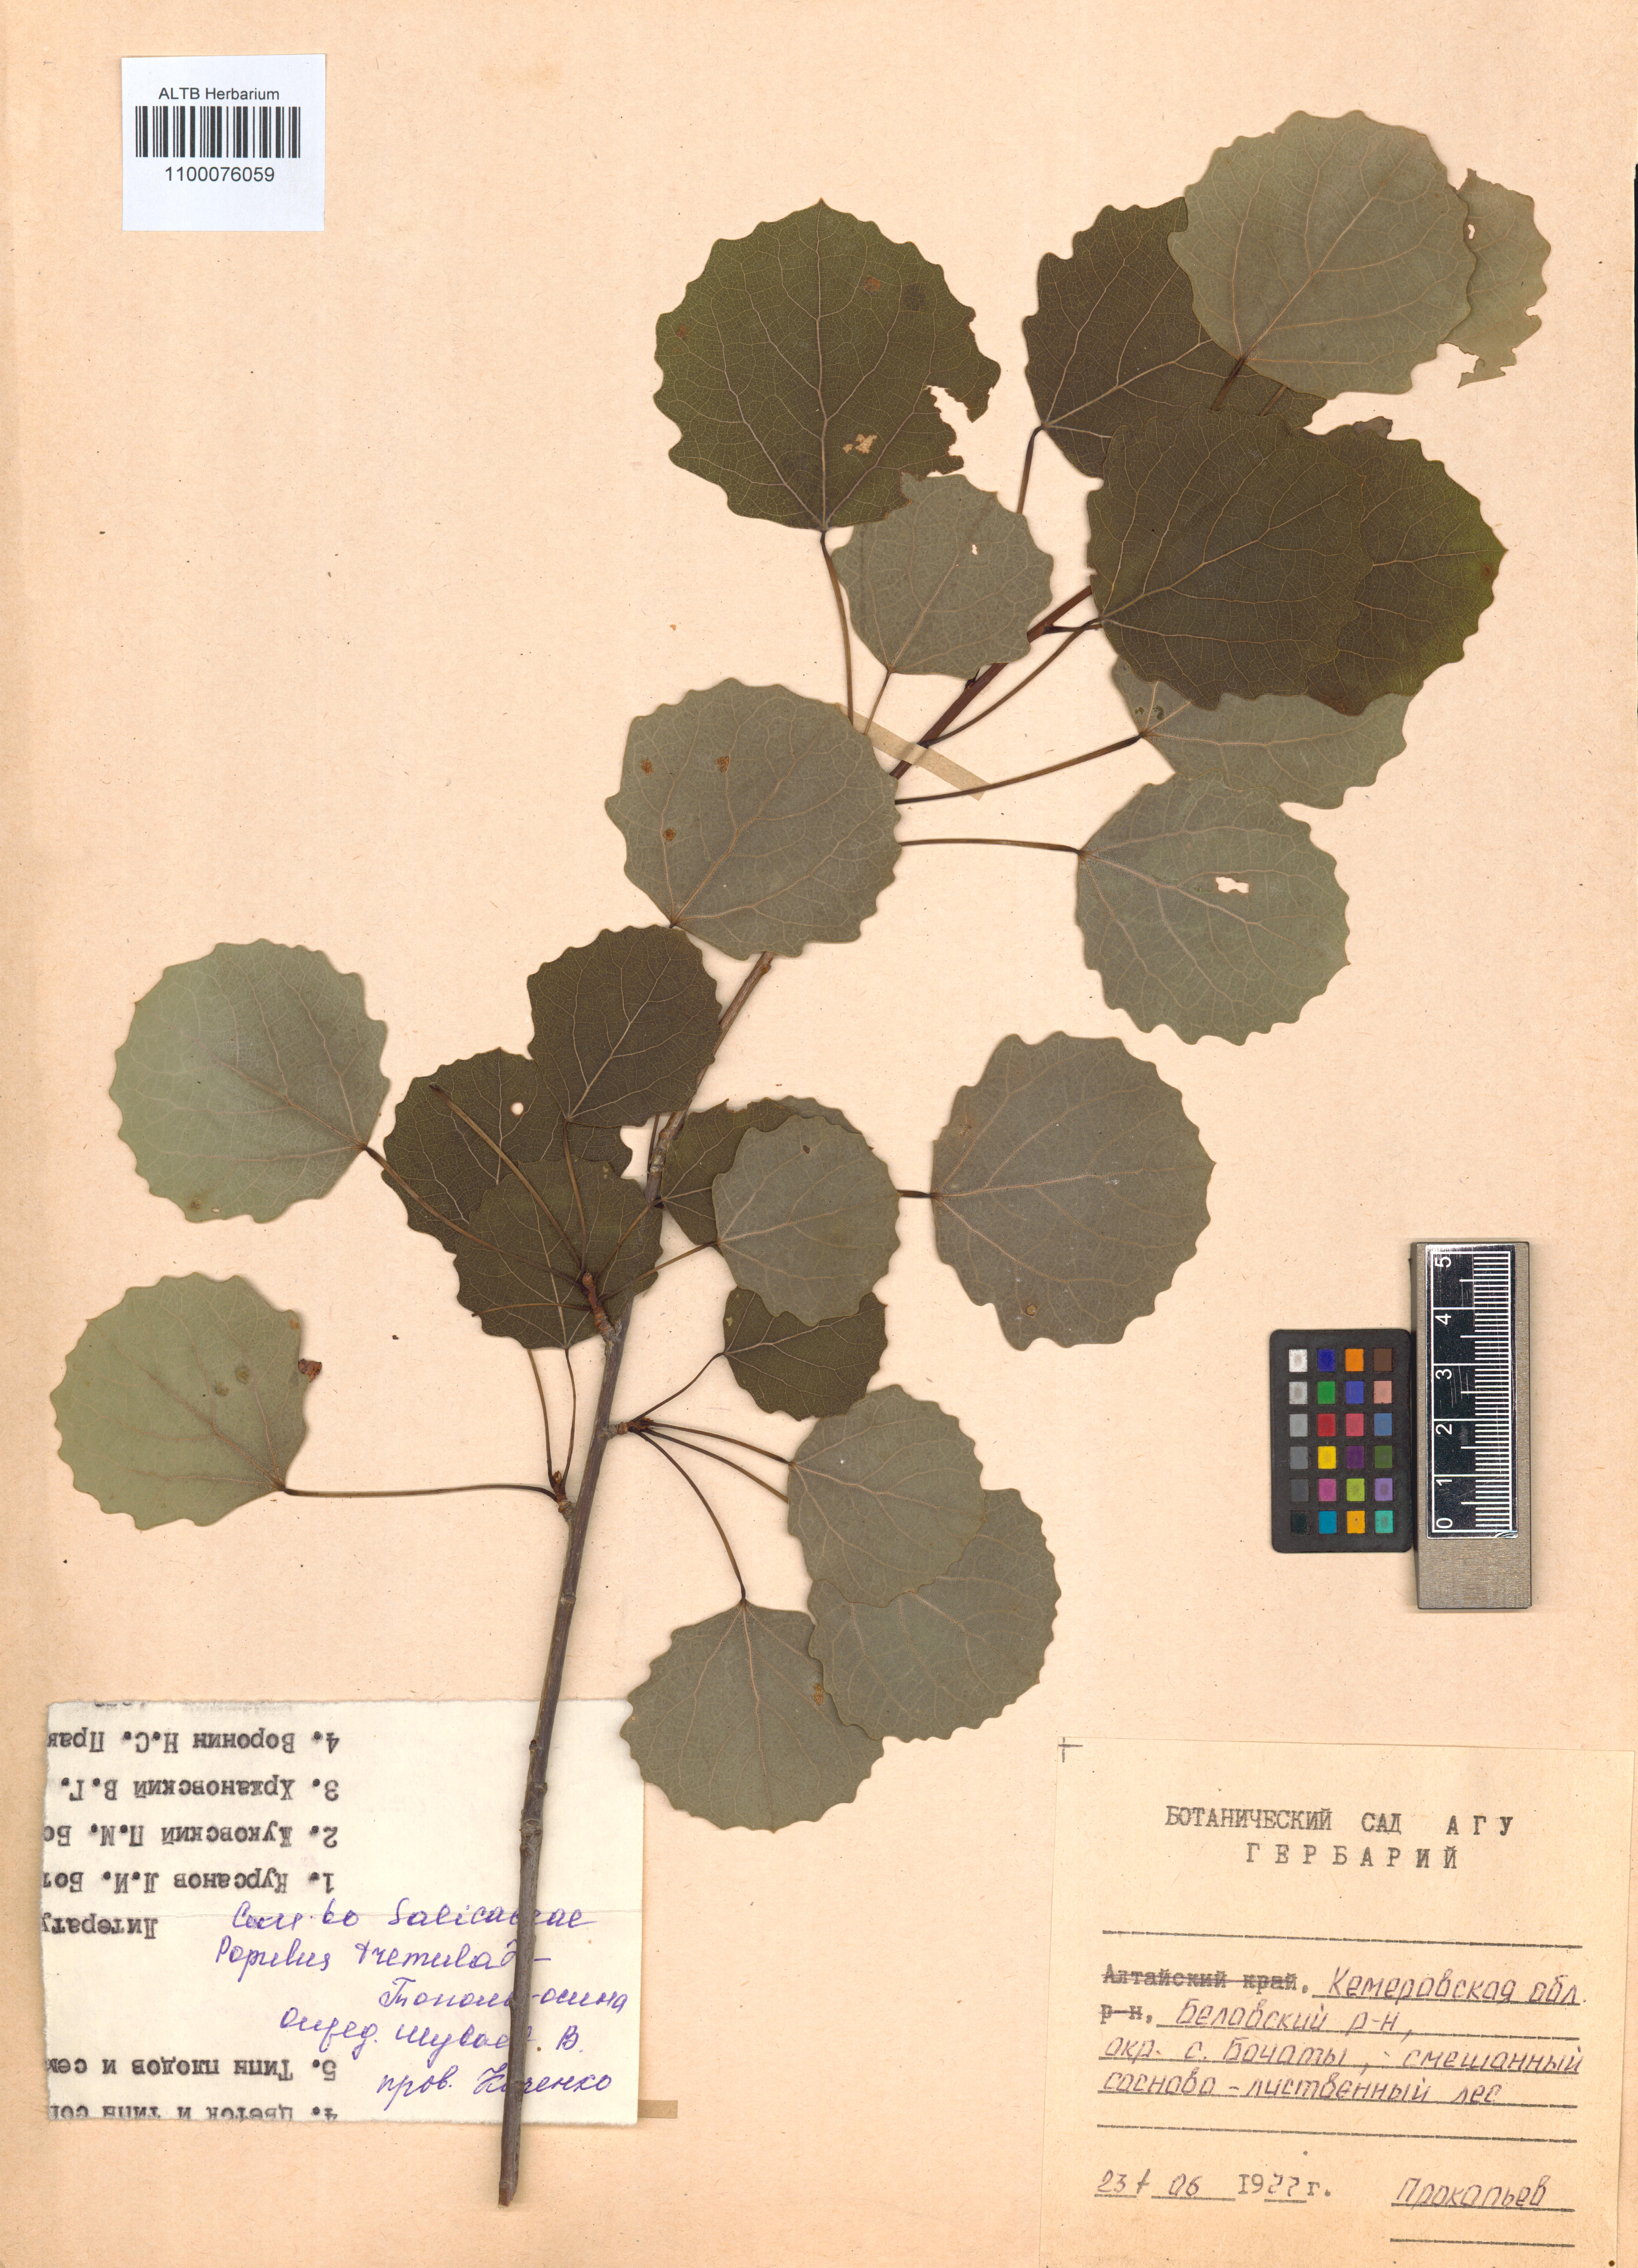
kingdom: Plantae
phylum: Tracheophyta
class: Magnoliopsida
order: Malpighiales
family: Salicaceae
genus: Populus
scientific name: Populus tremula
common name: European aspen
